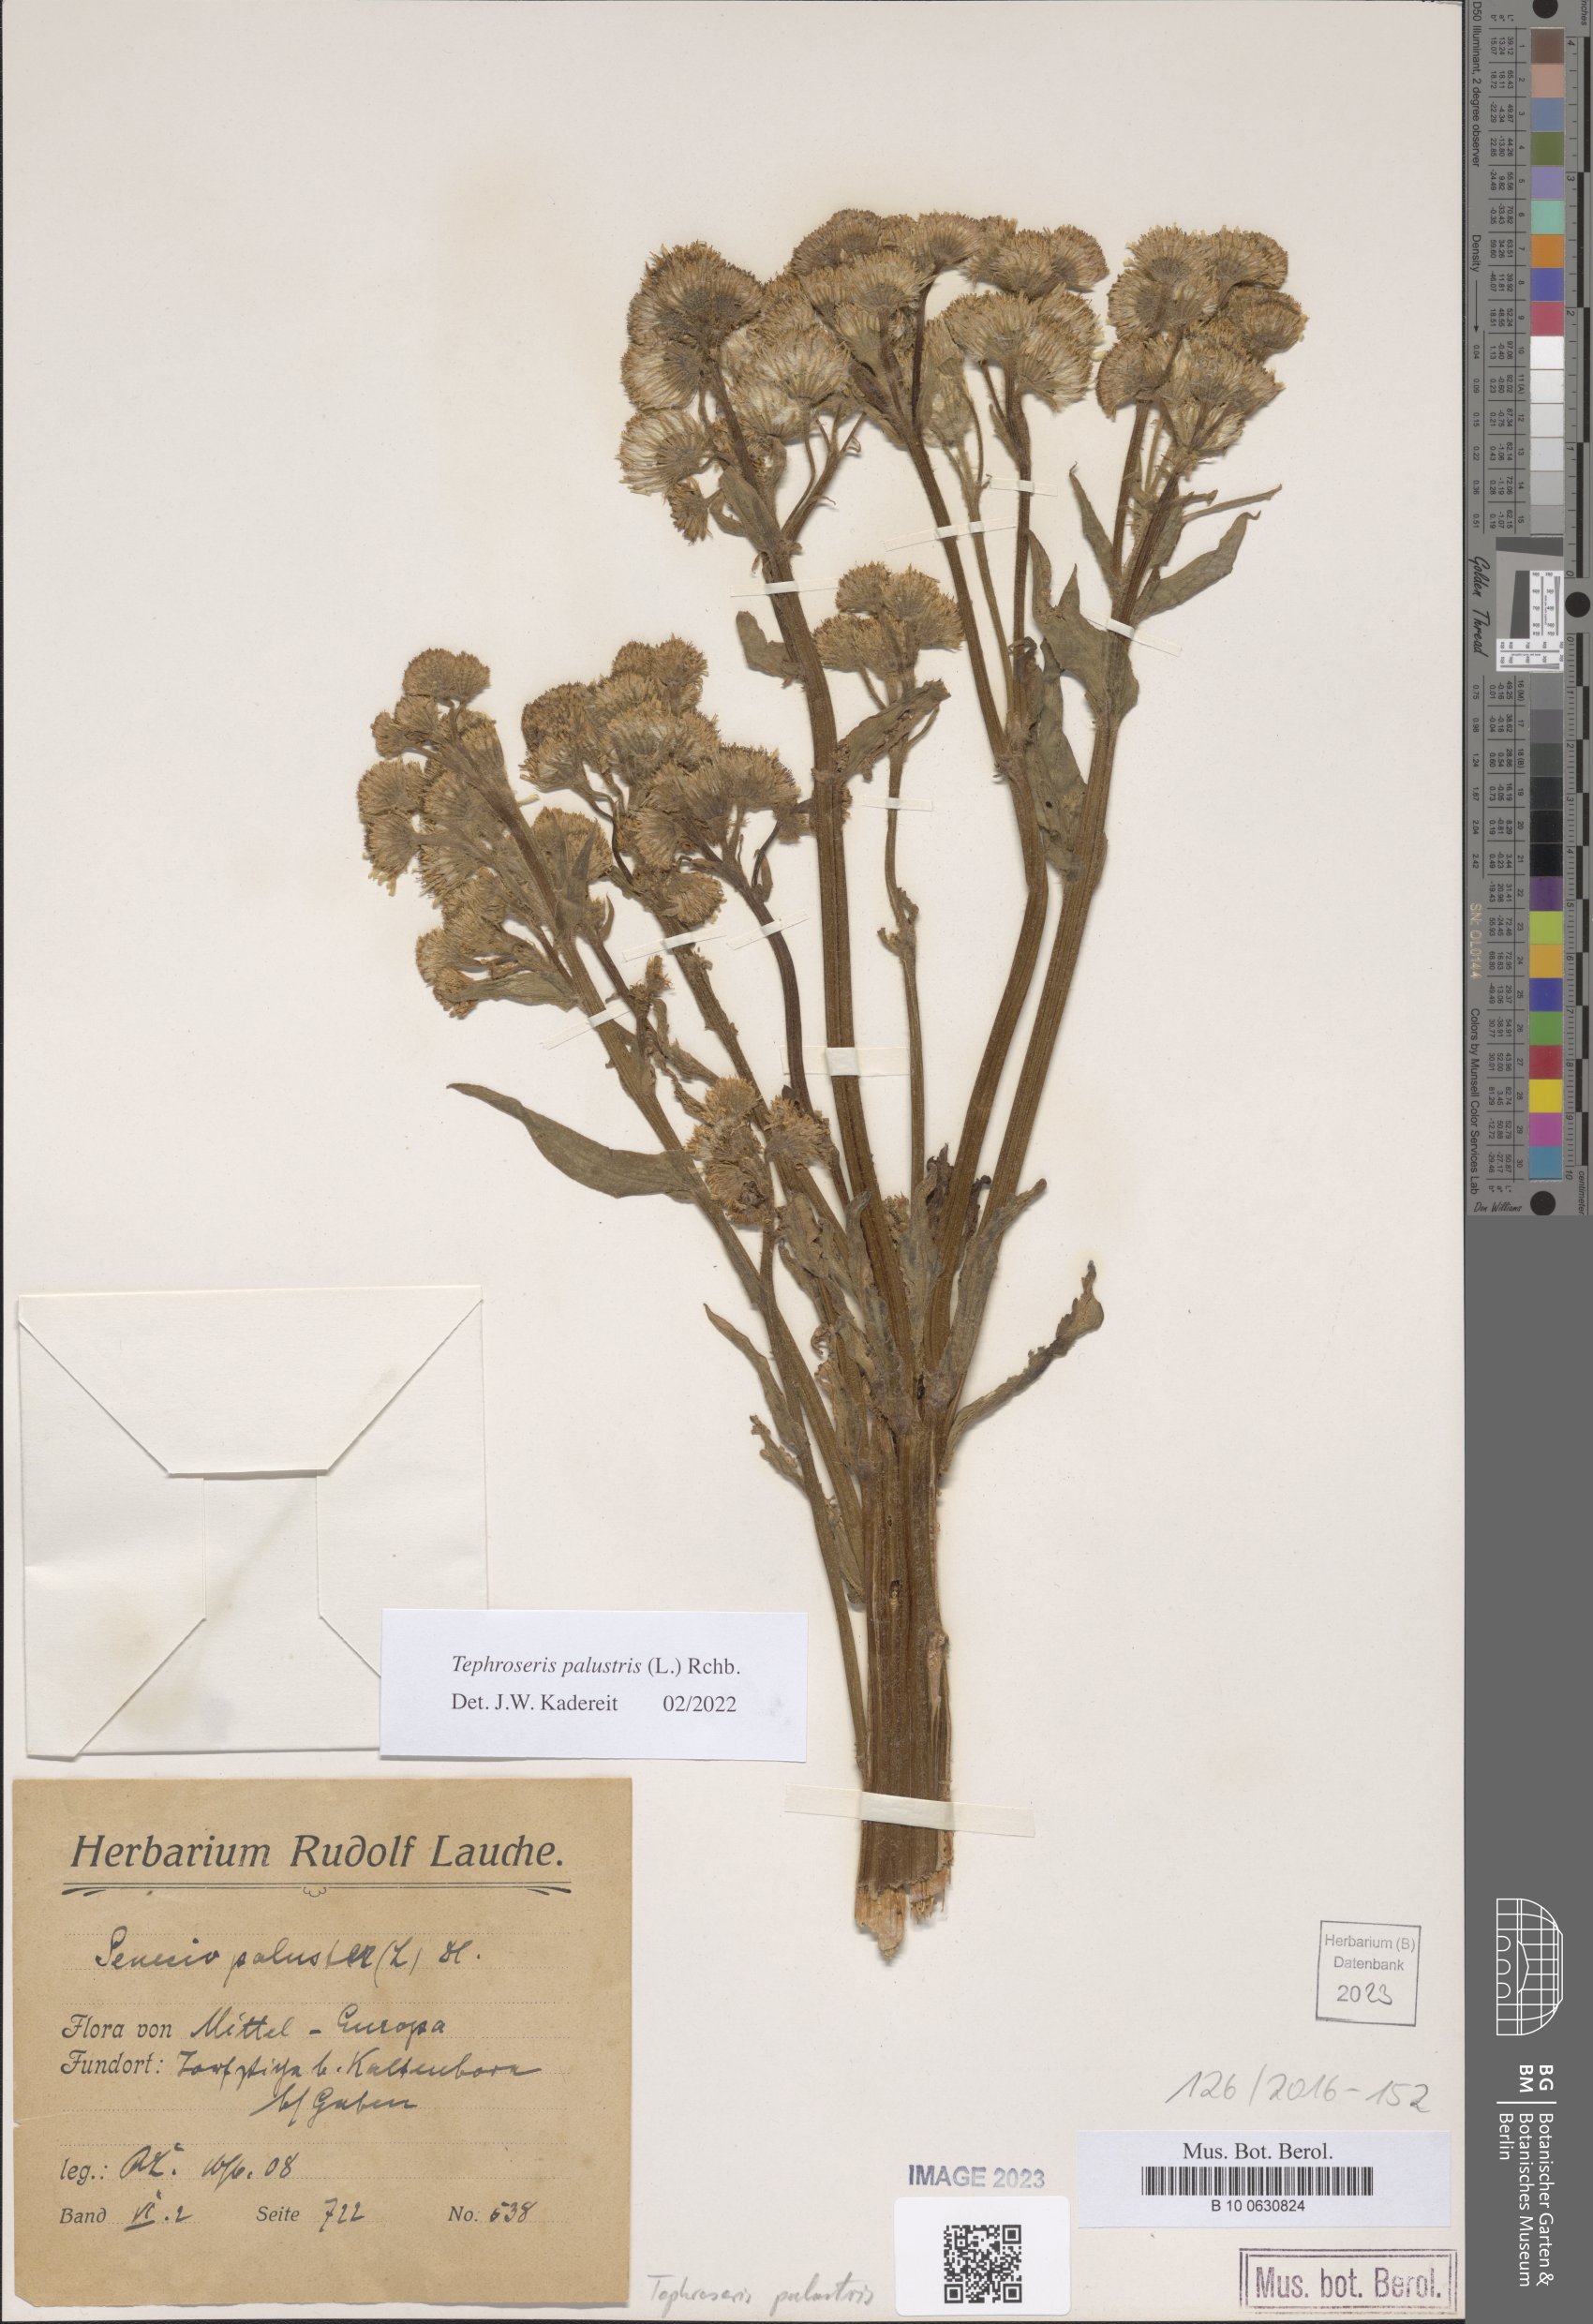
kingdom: Plantae
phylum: Tracheophyta
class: Magnoliopsida
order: Asterales
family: Asteraceae
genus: Tephroseris
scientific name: Tephroseris palustris
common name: Marsh fleawort
